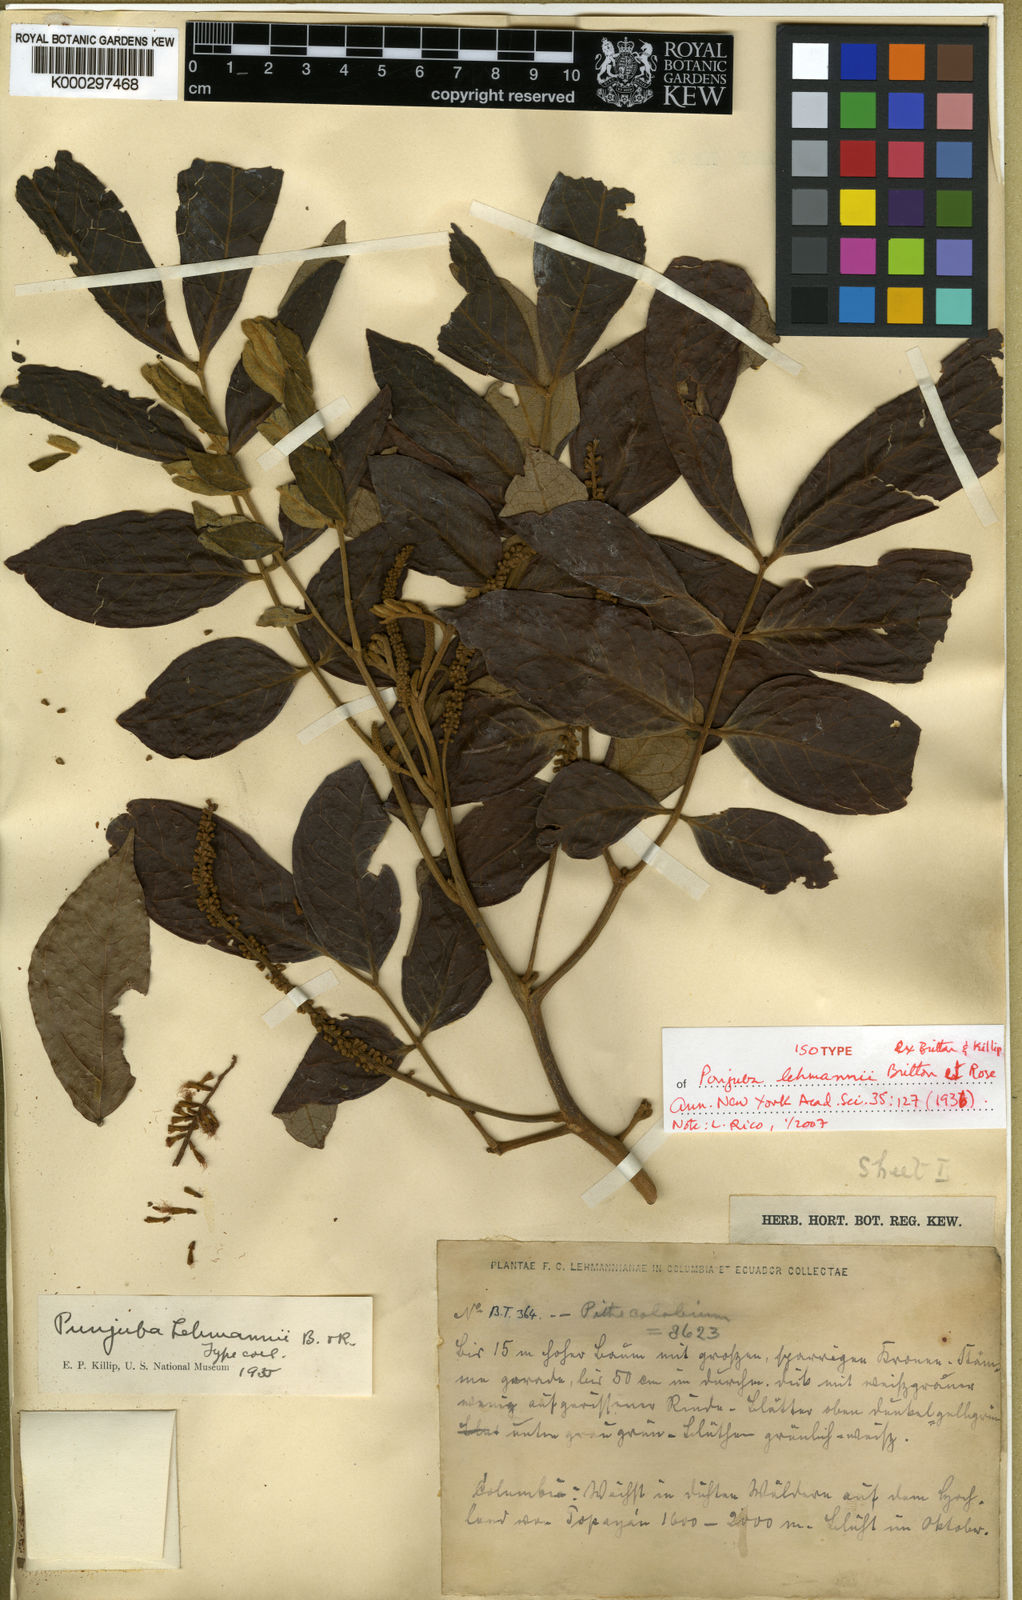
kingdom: Plantae
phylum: Tracheophyta
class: Magnoliopsida
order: Fabales
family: Fabaceae
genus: Punjuba
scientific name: Punjuba lehmannii
